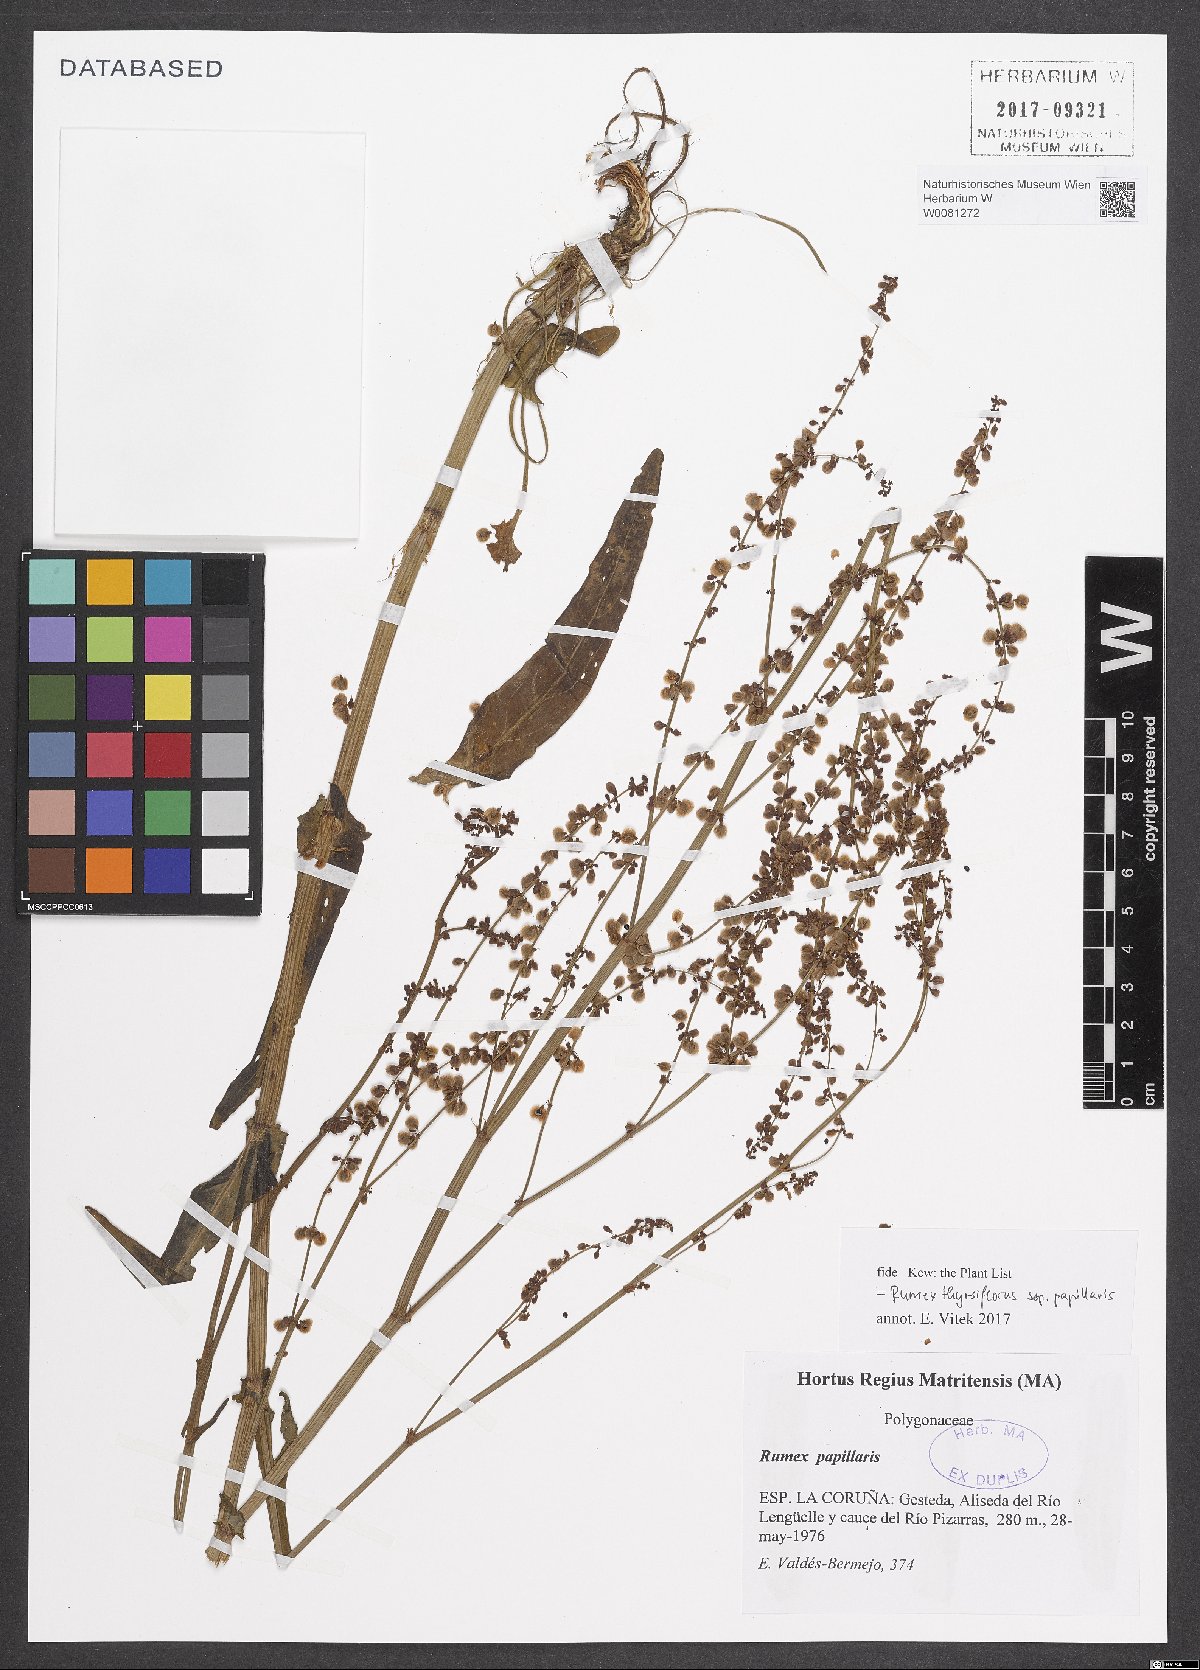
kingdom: Plantae
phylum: Tracheophyta
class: Magnoliopsida
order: Caryophyllales
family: Polygonaceae
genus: Rumex
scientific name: Rumex papillaris
